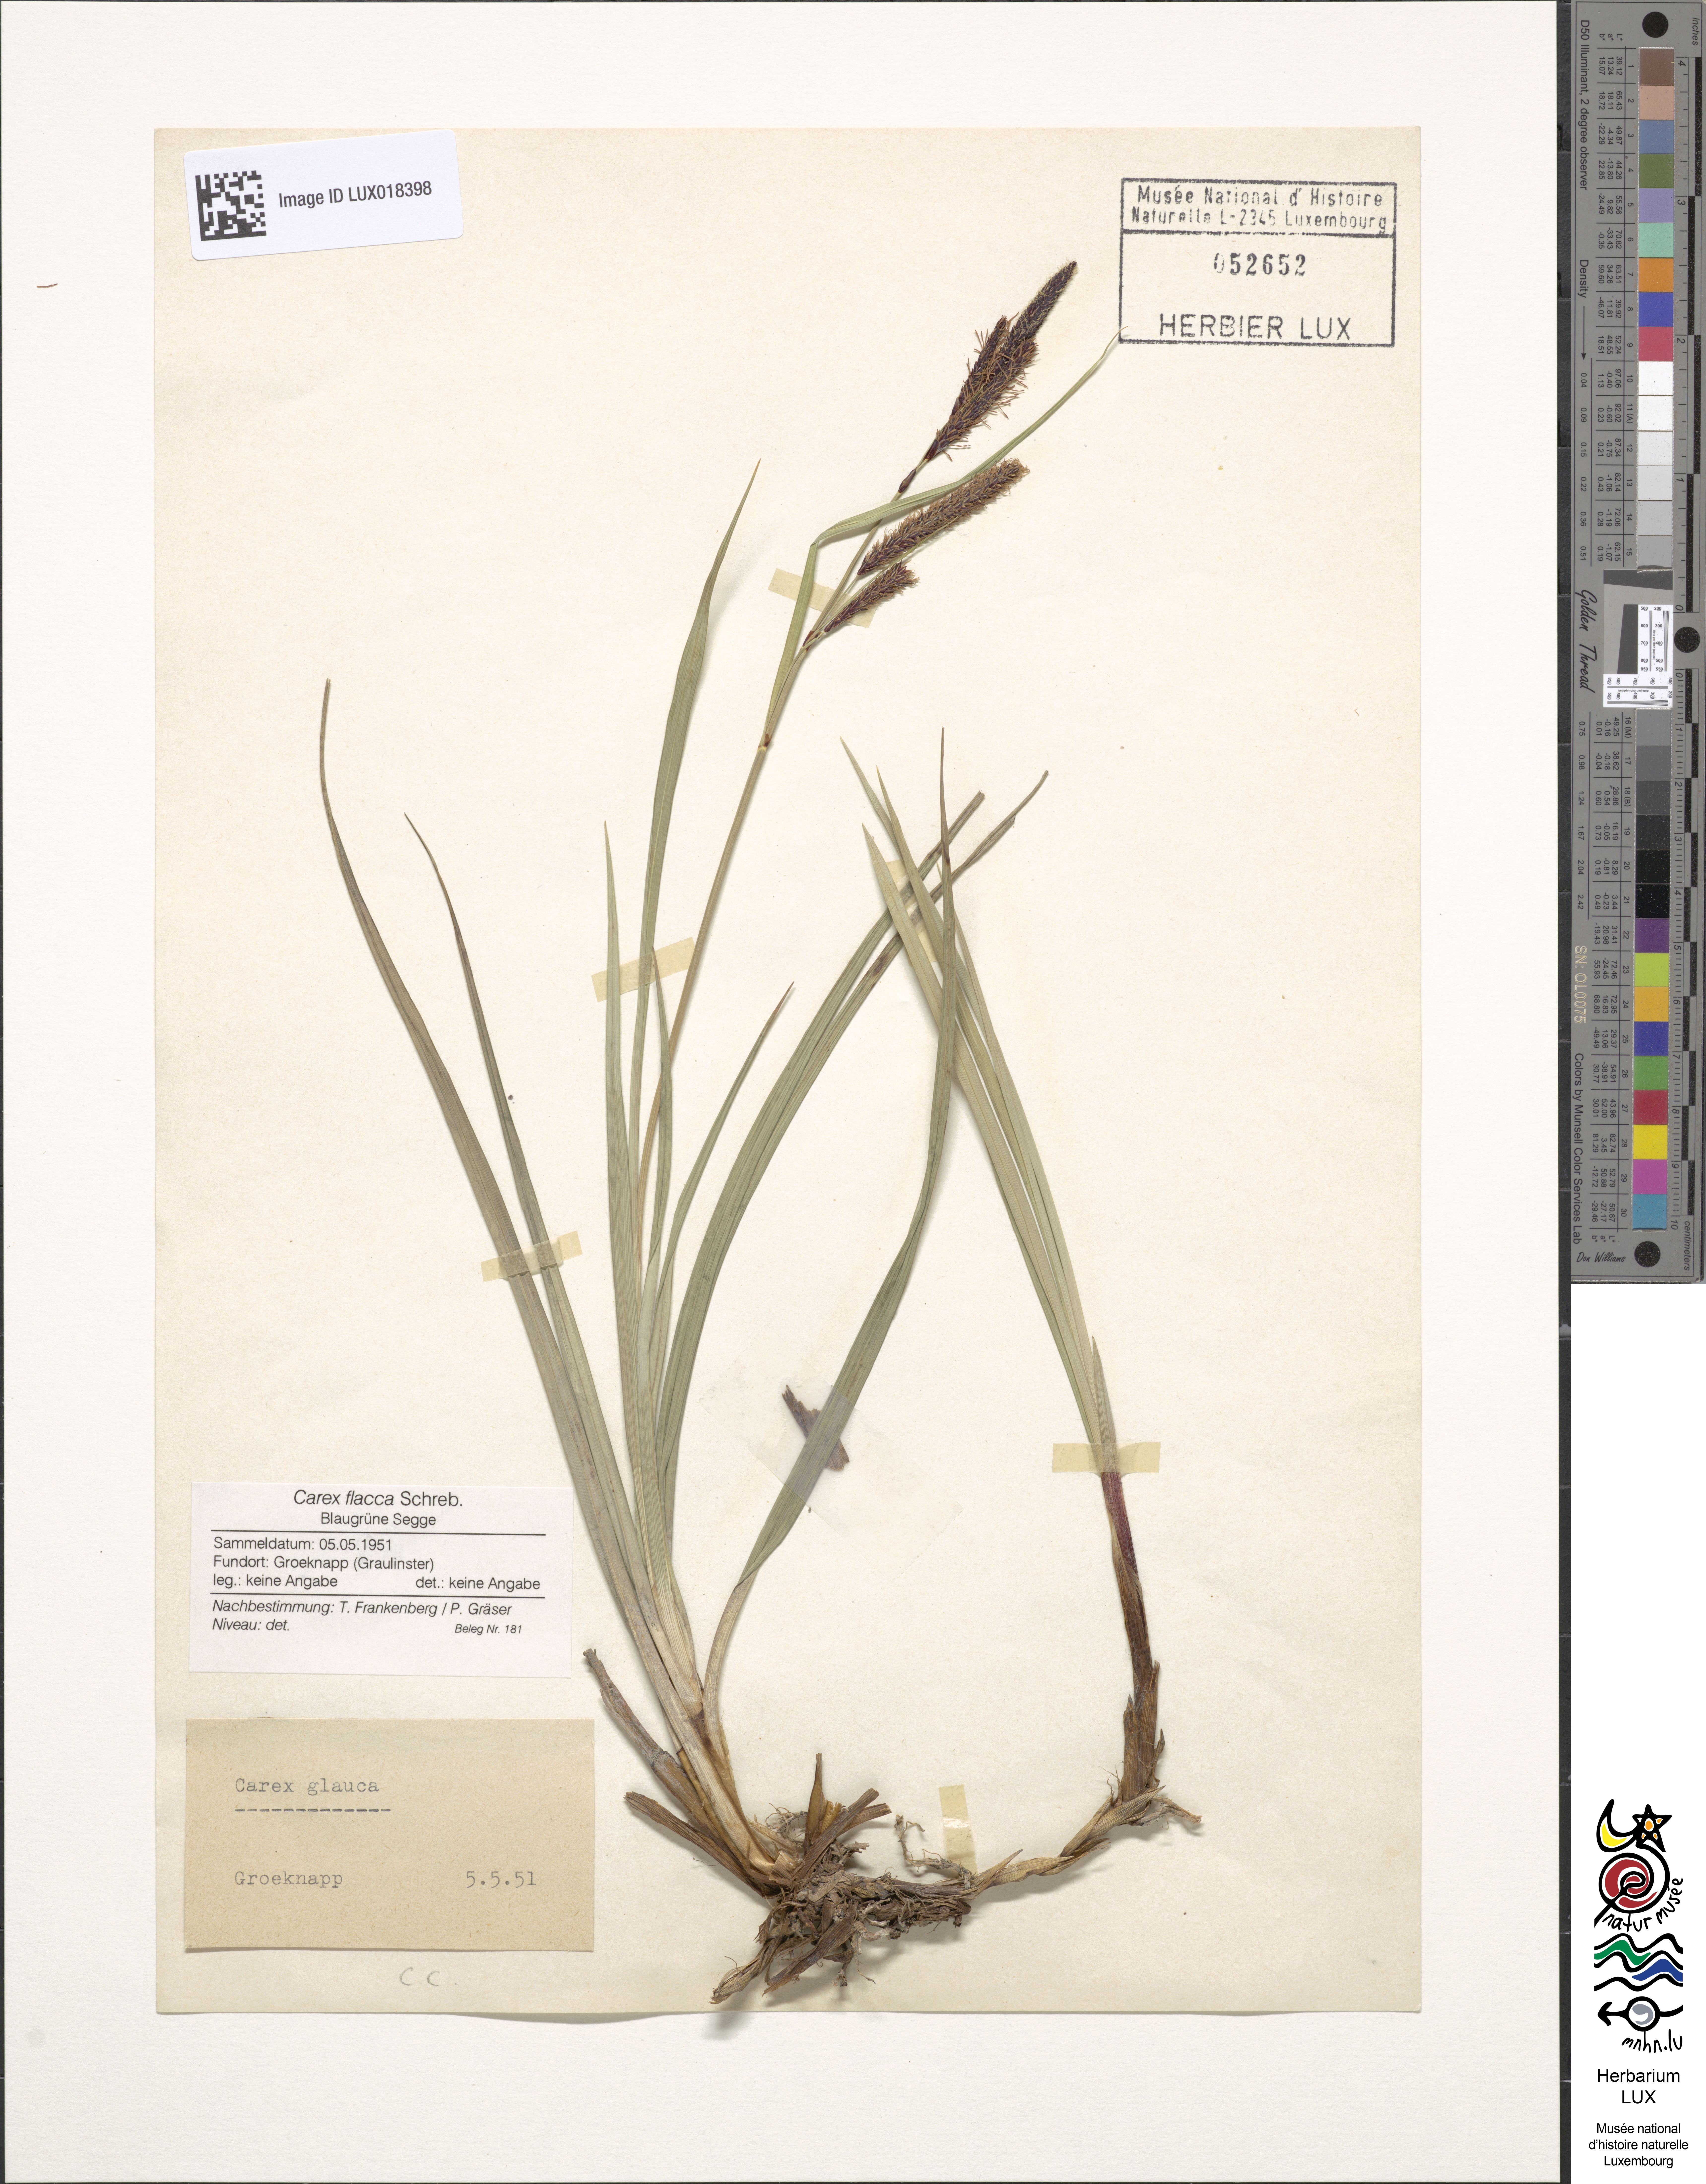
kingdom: Plantae
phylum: Tracheophyta
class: Liliopsida
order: Poales
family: Cyperaceae
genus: Carex
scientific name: Carex flacca
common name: Glaucous sedge
